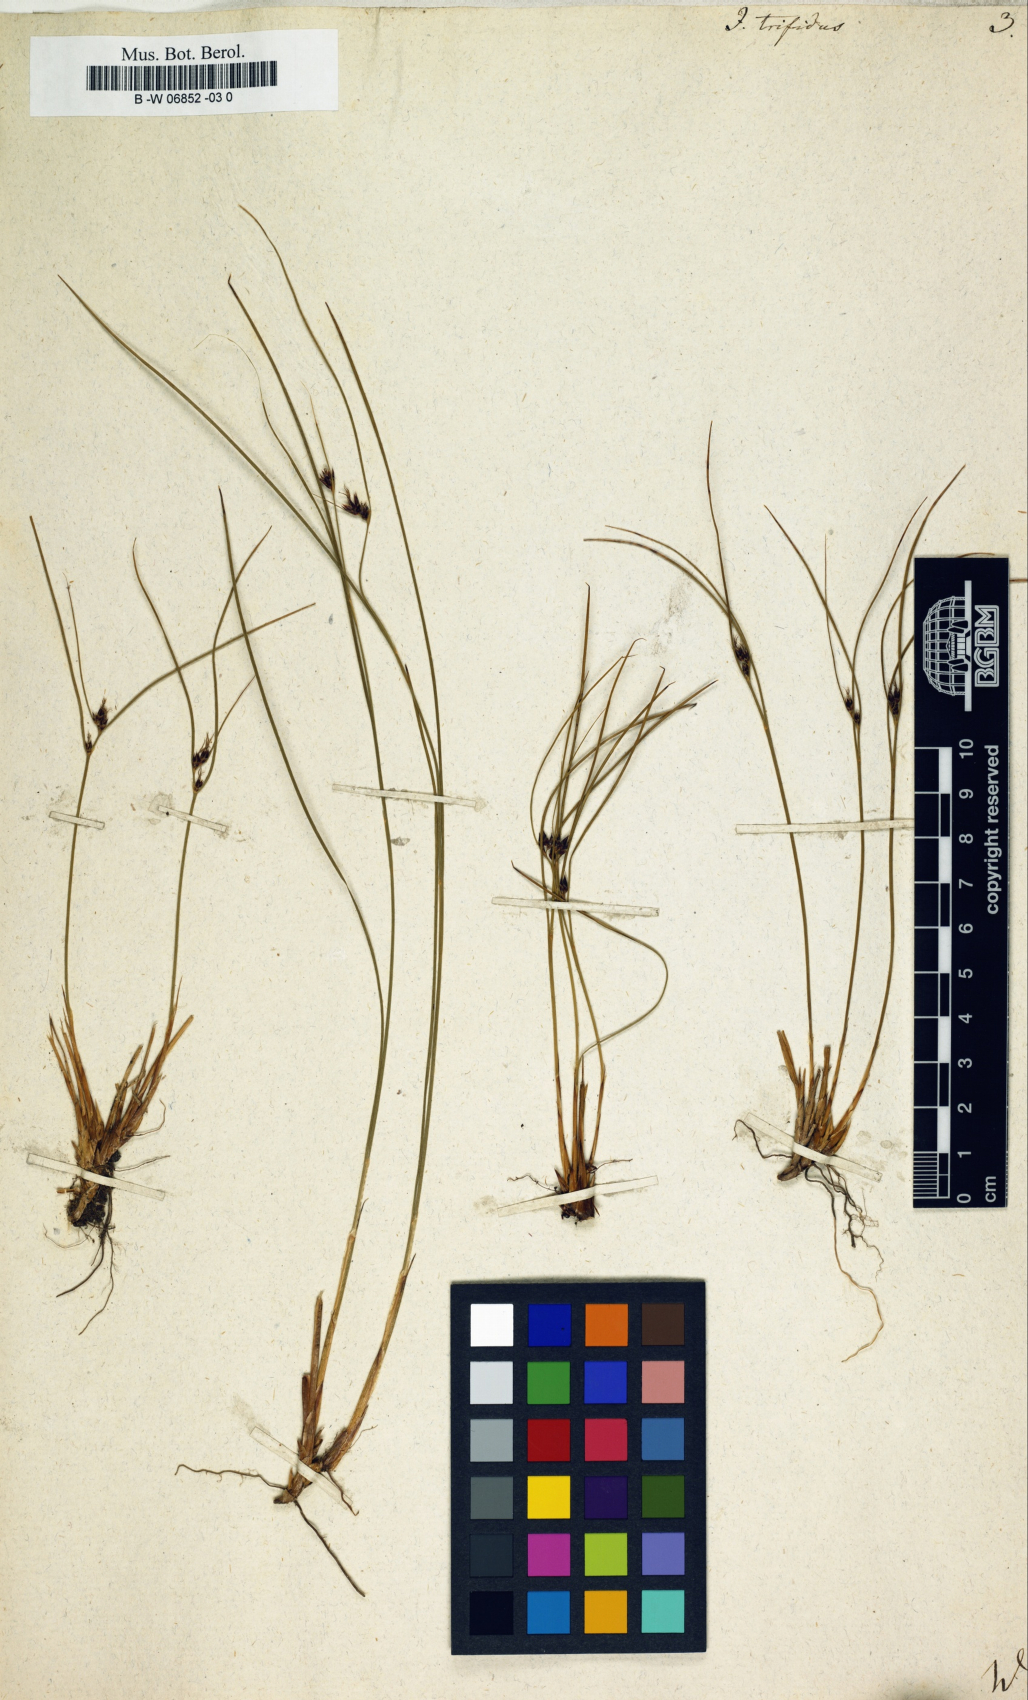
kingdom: Plantae
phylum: Tracheophyta
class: Liliopsida
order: Poales
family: Juncaceae
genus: Oreojuncus
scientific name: Oreojuncus trifidus
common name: Highland rush
